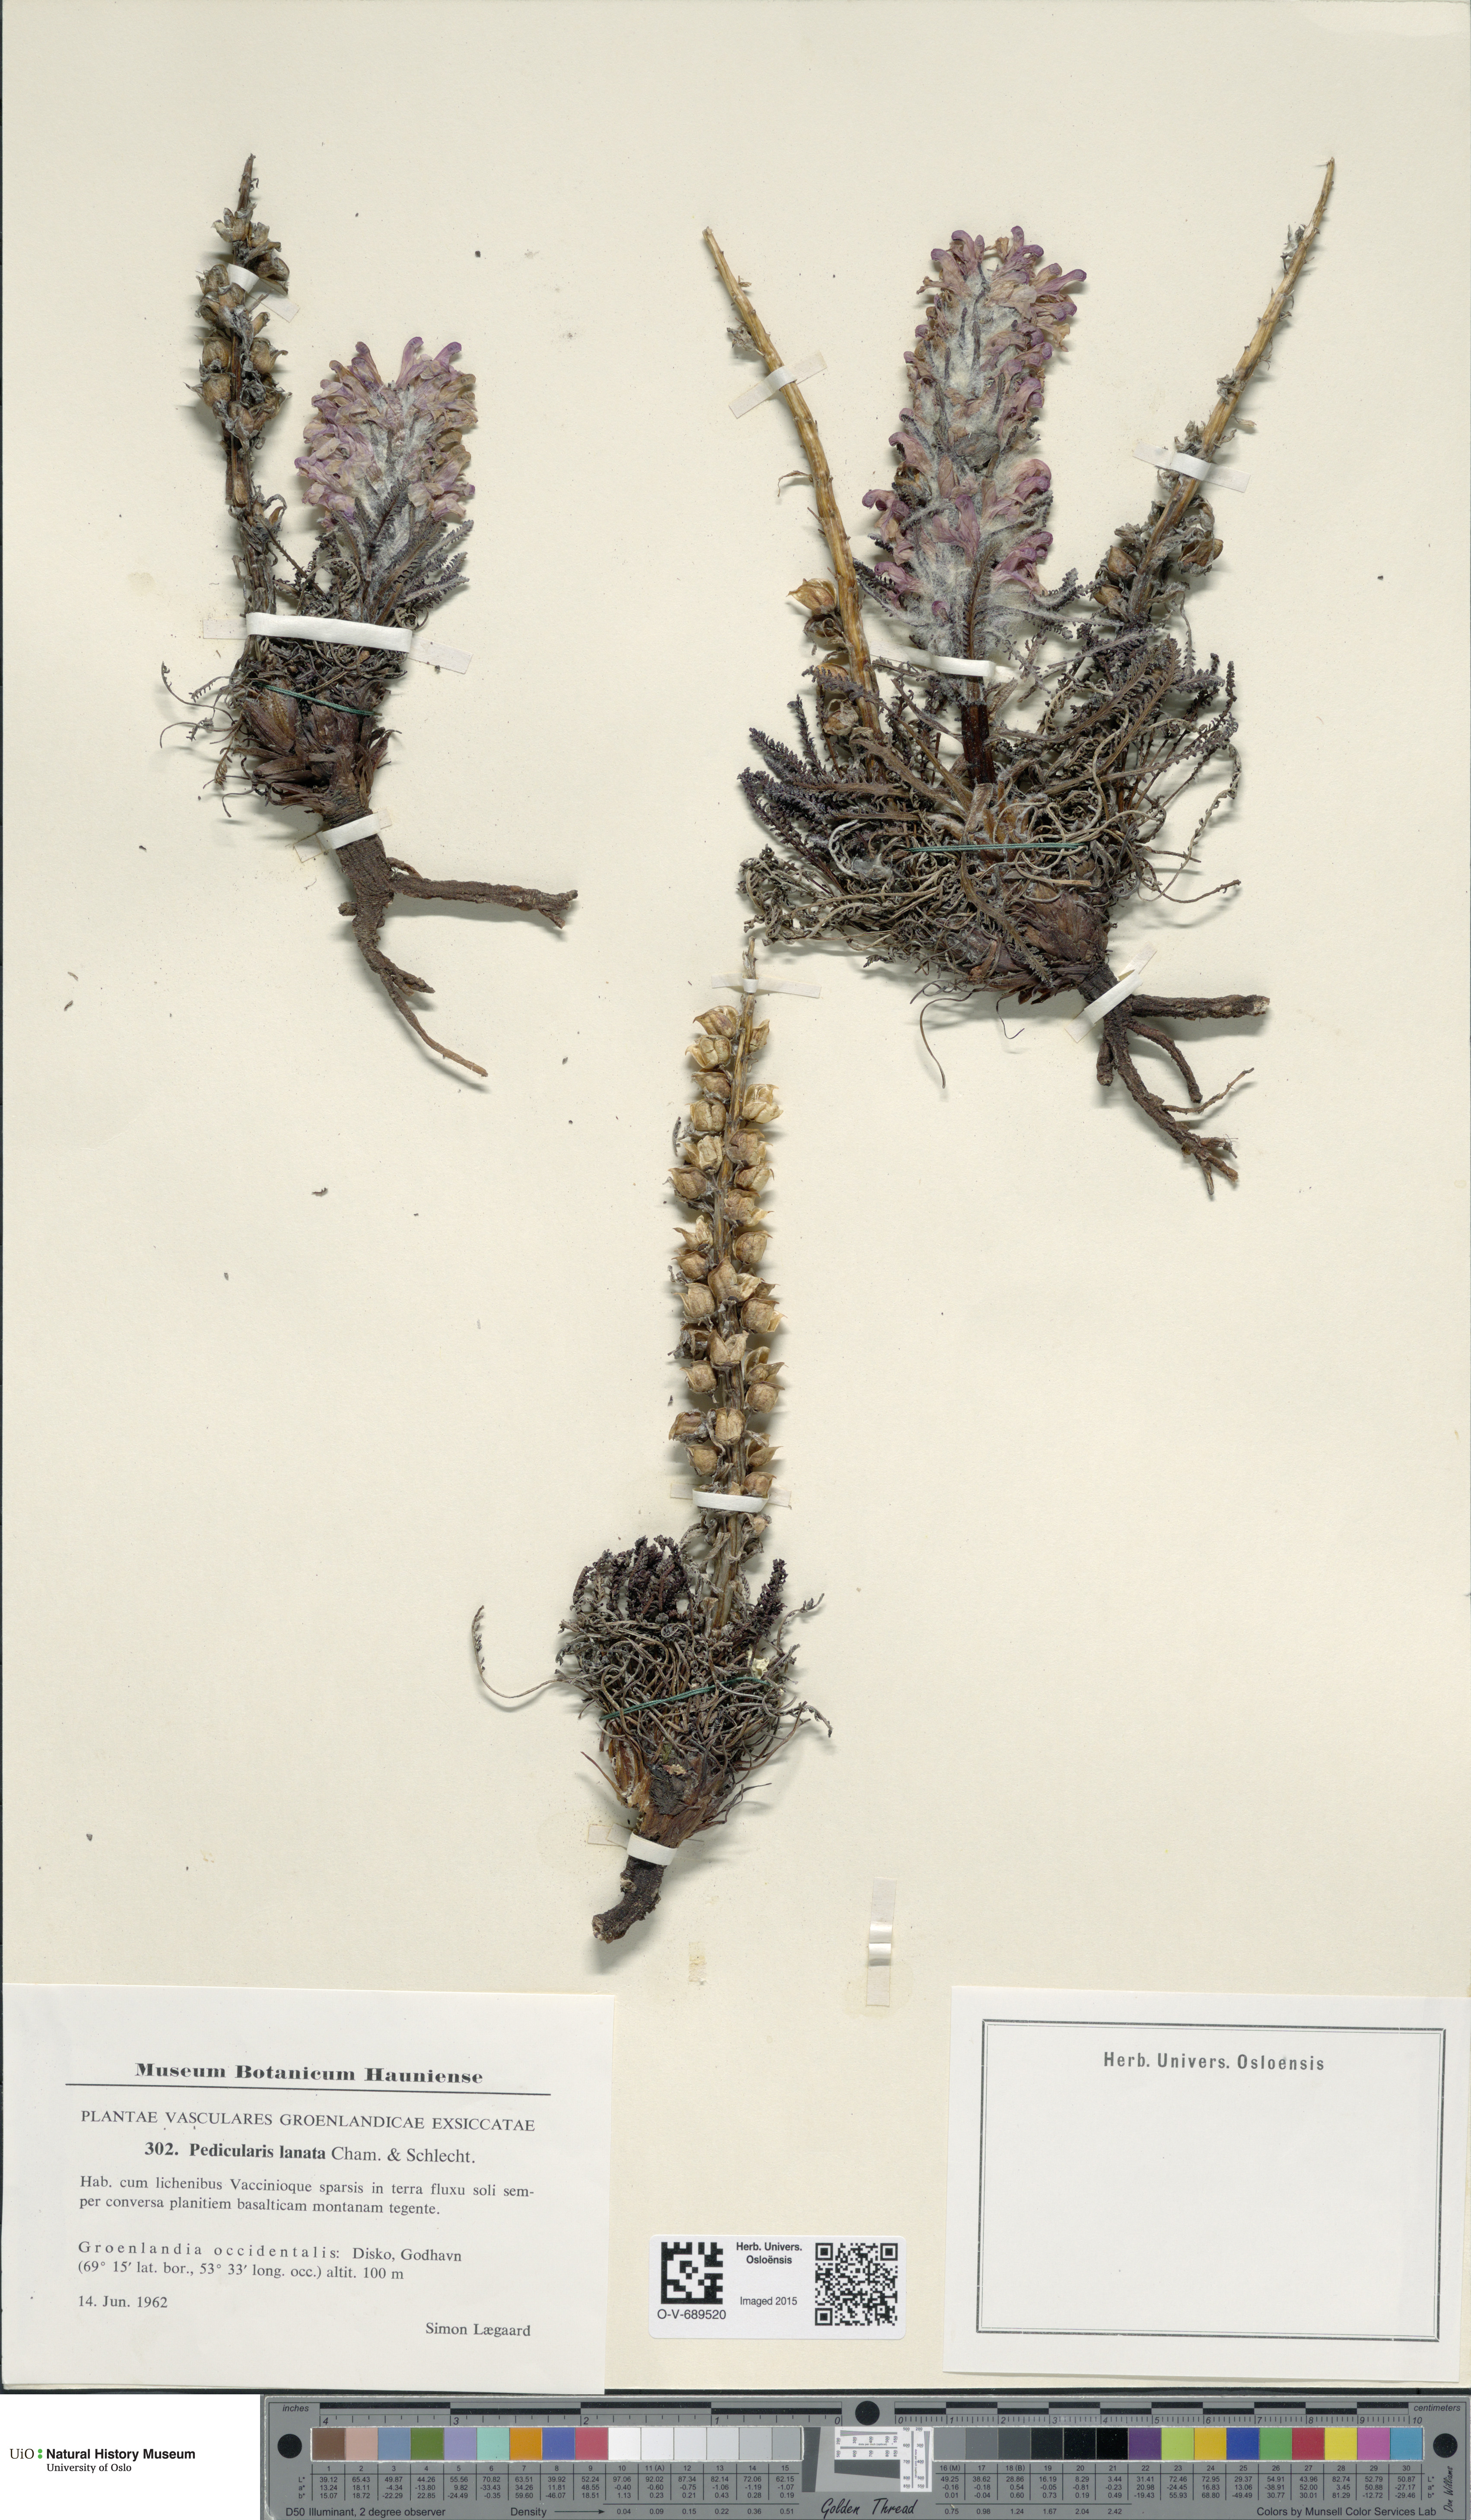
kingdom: Plantae
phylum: Tracheophyta
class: Magnoliopsida
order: Lamiales
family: Orobanchaceae
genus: Pedicularis
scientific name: Pedicularis lanata
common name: Woolly lousewort
